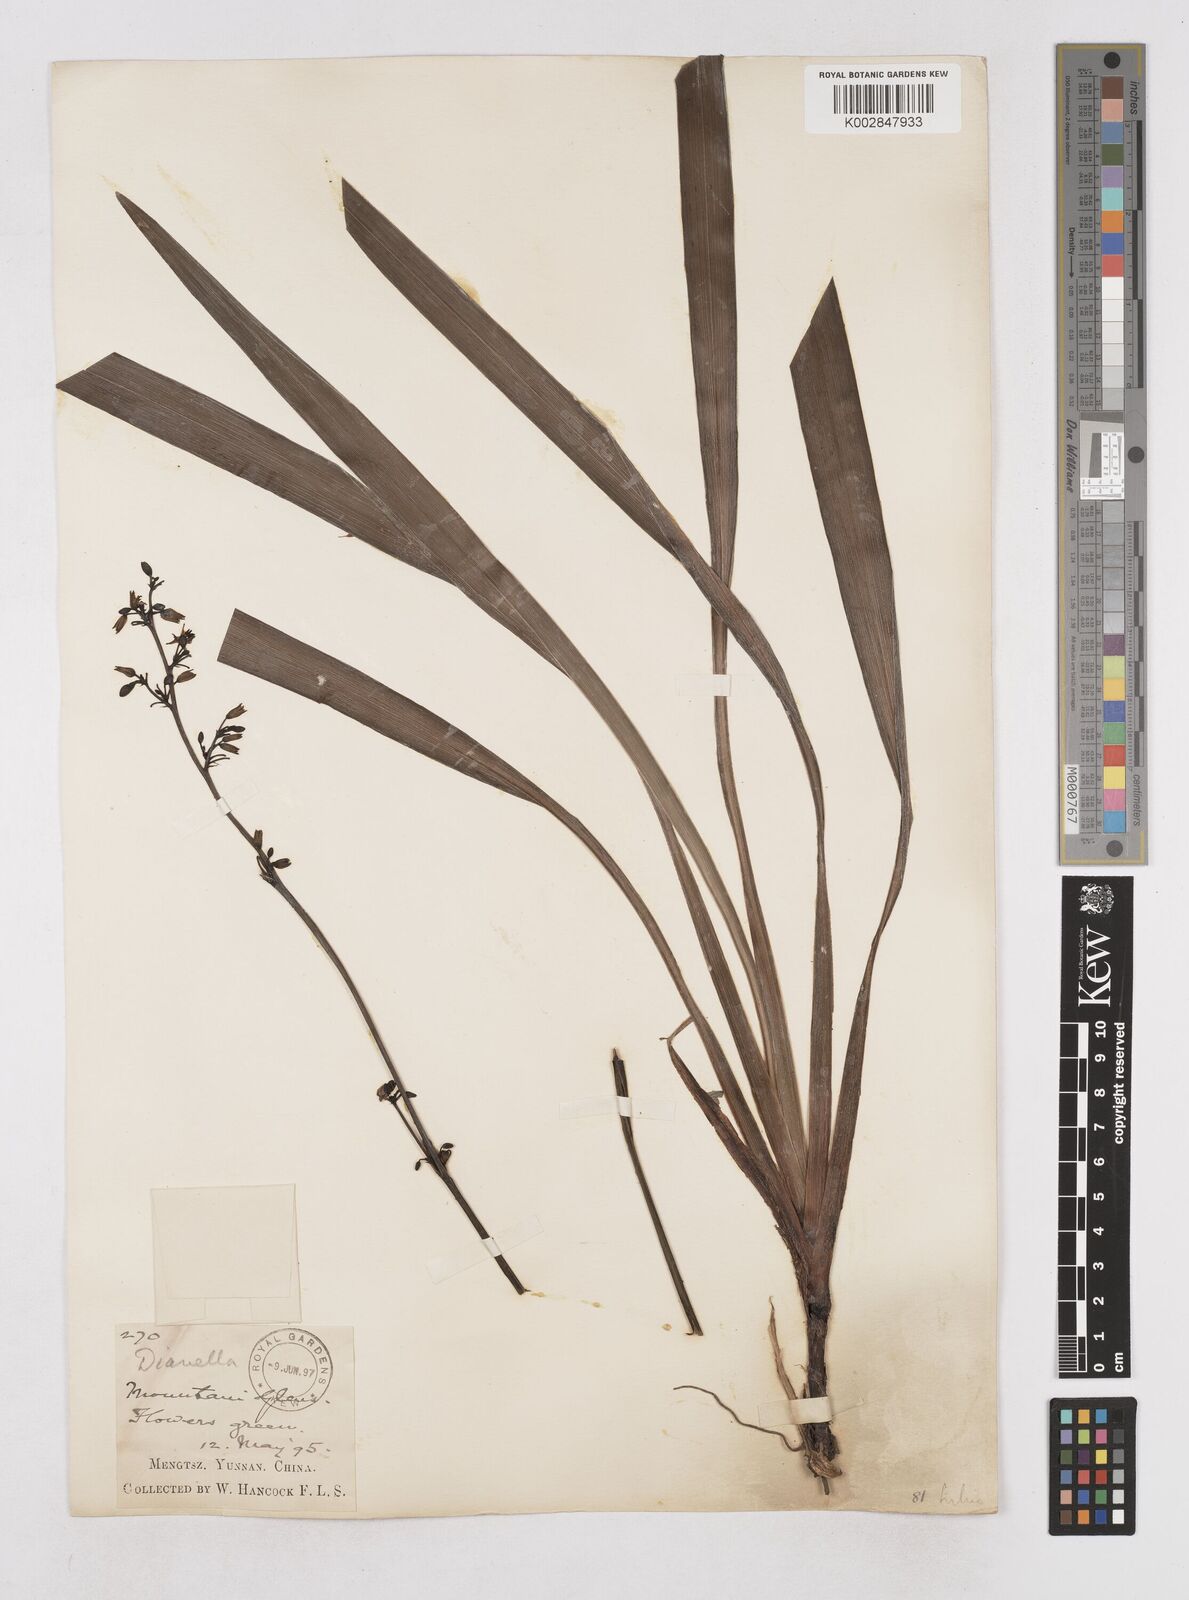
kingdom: Plantae
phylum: Tracheophyta
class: Liliopsida
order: Asparagales
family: Asphodelaceae
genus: Dianella
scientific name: Dianella ensifolia
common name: New zealand lilyplant
